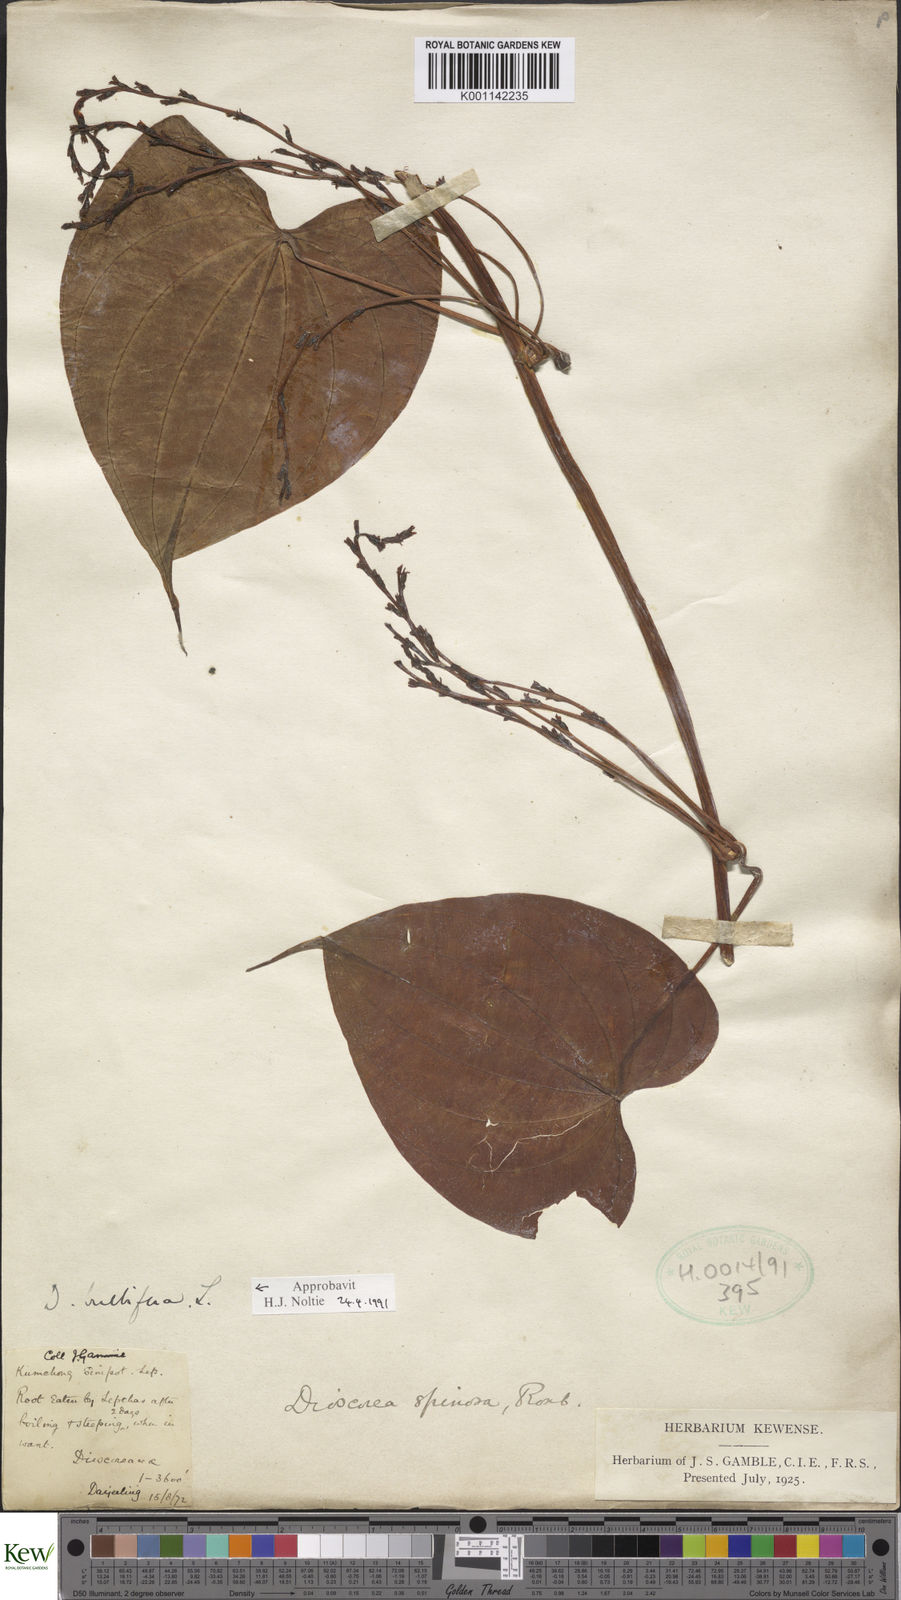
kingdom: Plantae
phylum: Tracheophyta
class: Liliopsida
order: Dioscoreales
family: Dioscoreaceae
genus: Dioscorea
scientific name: Dioscorea bulbifera
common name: Air yam
